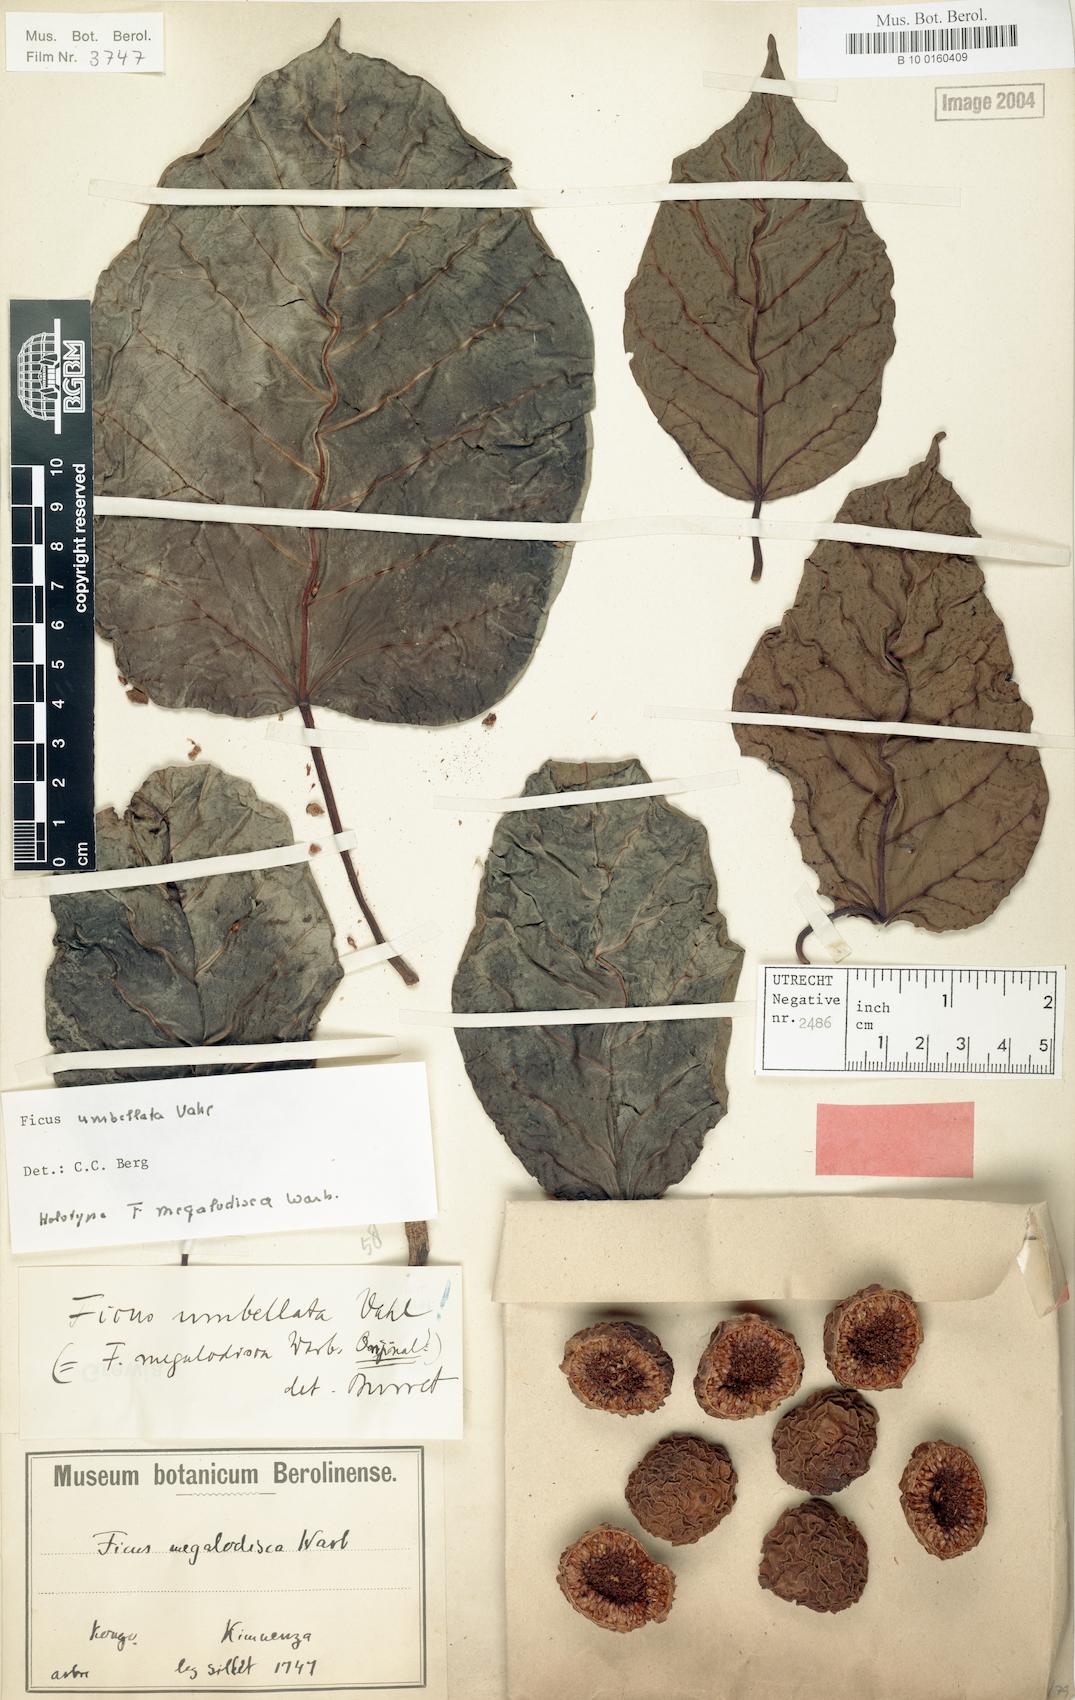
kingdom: Plantae
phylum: Tracheophyta
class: Magnoliopsida
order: Rosales
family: Moraceae
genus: Ficus
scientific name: Ficus umbellata
